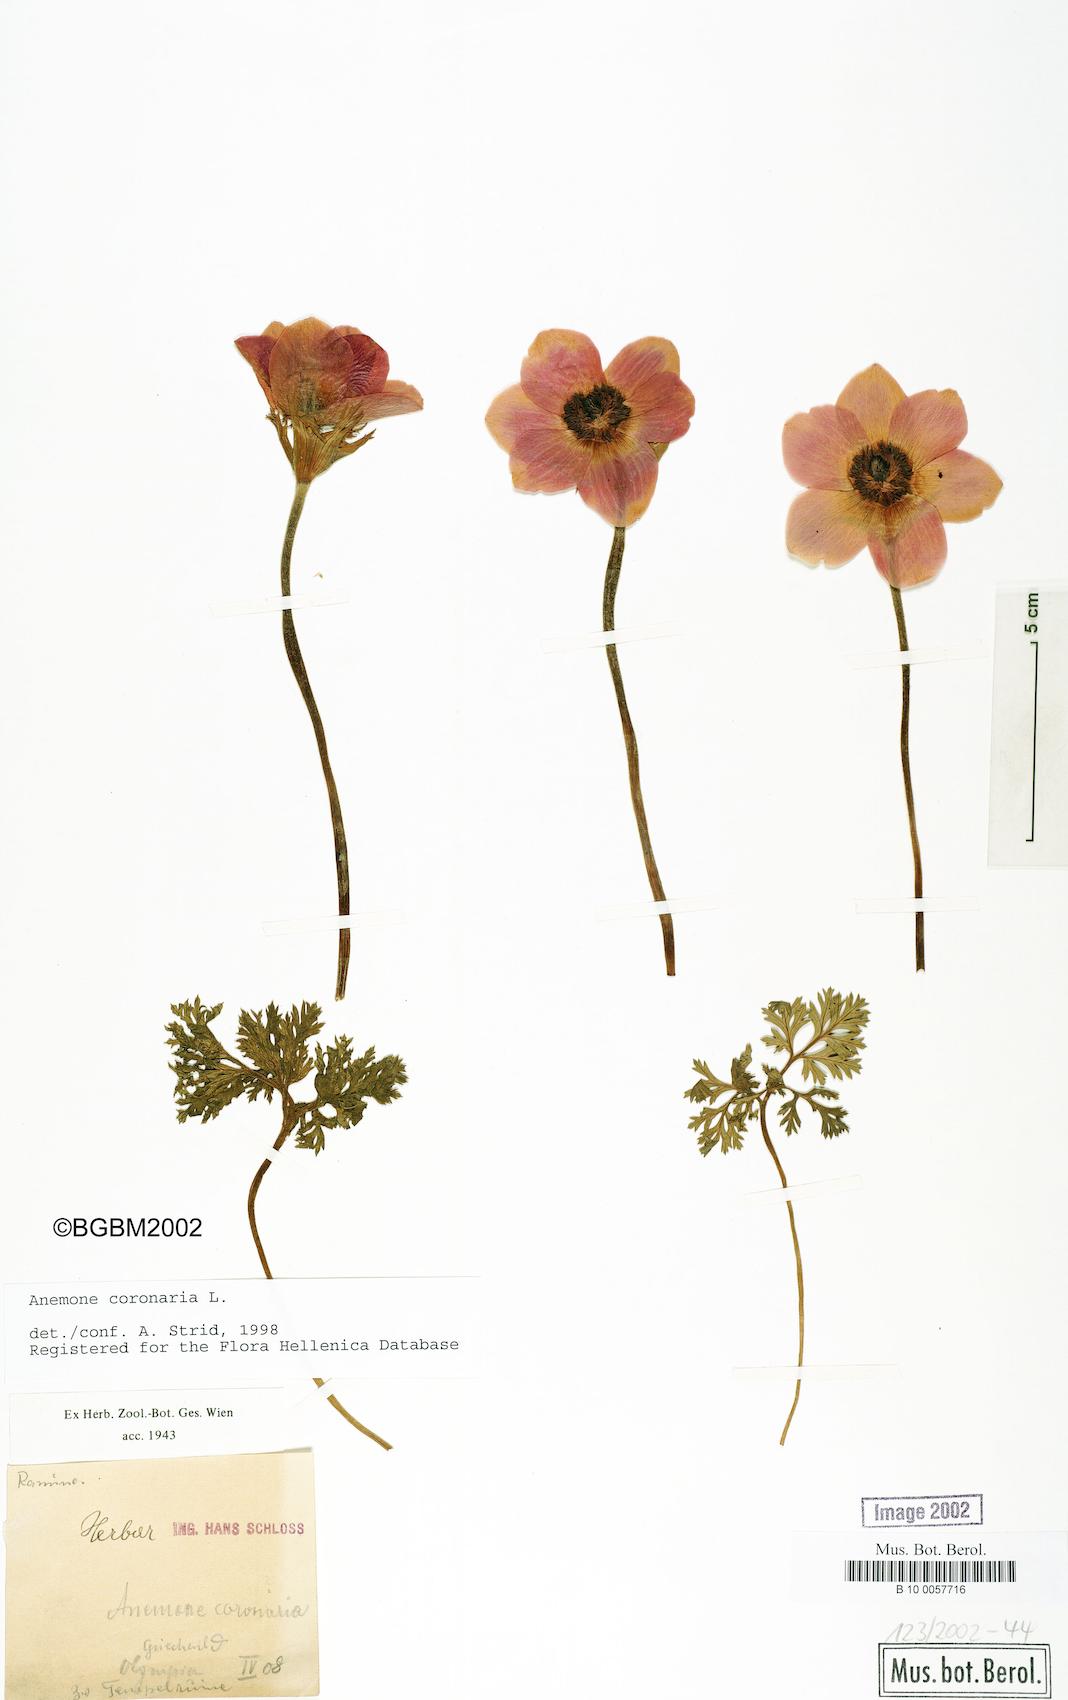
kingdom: Plantae
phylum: Tracheophyta
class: Magnoliopsida
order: Ranunculales
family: Ranunculaceae
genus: Anemone
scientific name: Anemone coronaria
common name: Poppy anemone
